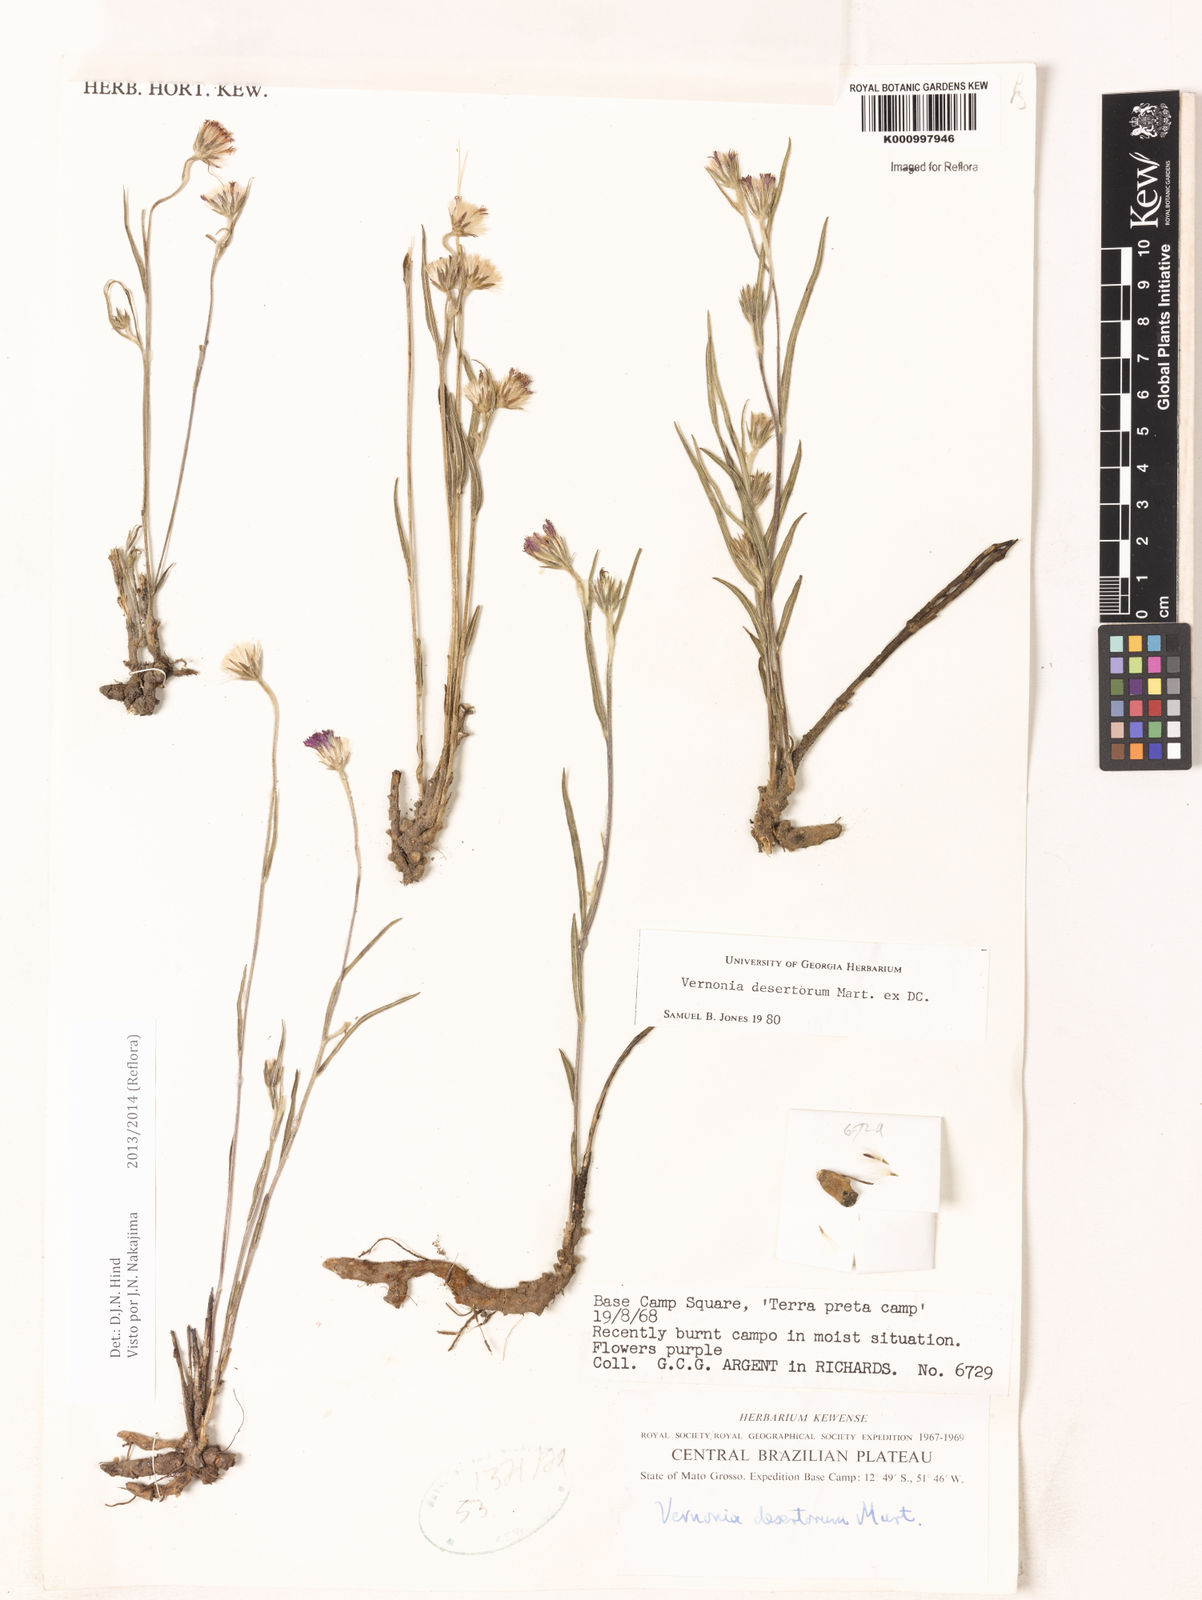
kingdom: Plantae
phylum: Tracheophyta
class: Magnoliopsida
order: Asterales
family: Asteraceae
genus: Chrysolaena
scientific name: Chrysolaena desertorum
